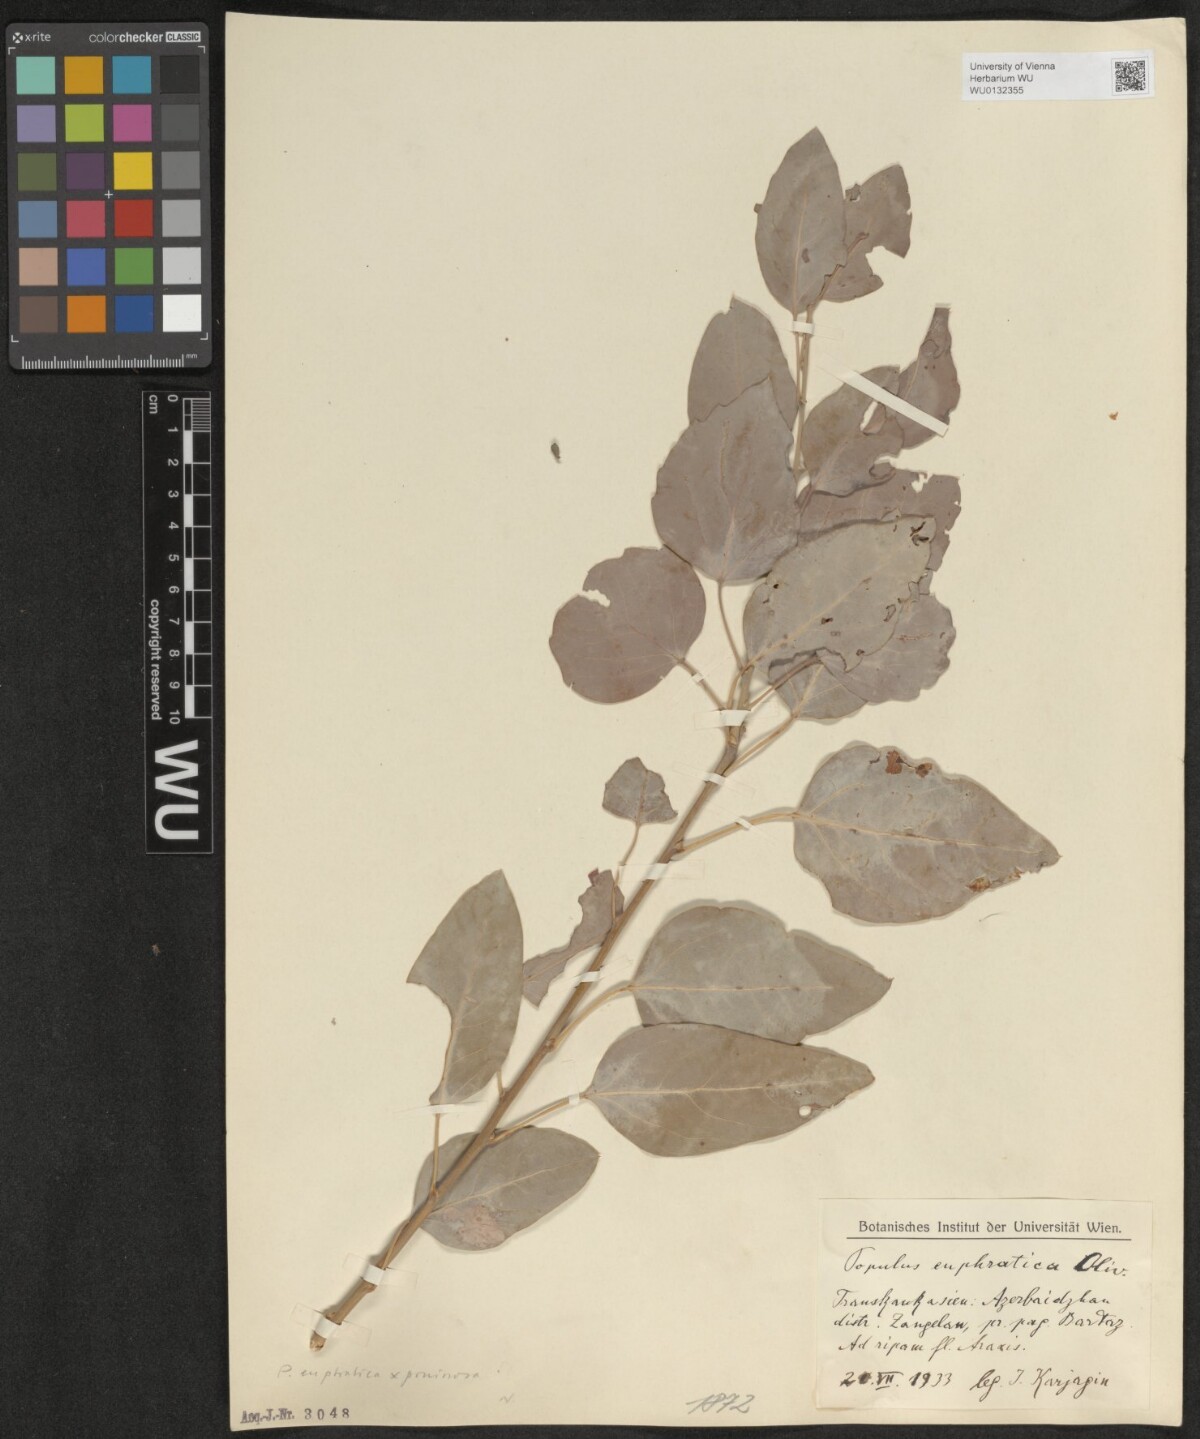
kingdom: Plantae
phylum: Tracheophyta
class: Magnoliopsida
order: Malpighiales
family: Salicaceae
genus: Populus
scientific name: Populus euphratica
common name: Euphrates poplar
